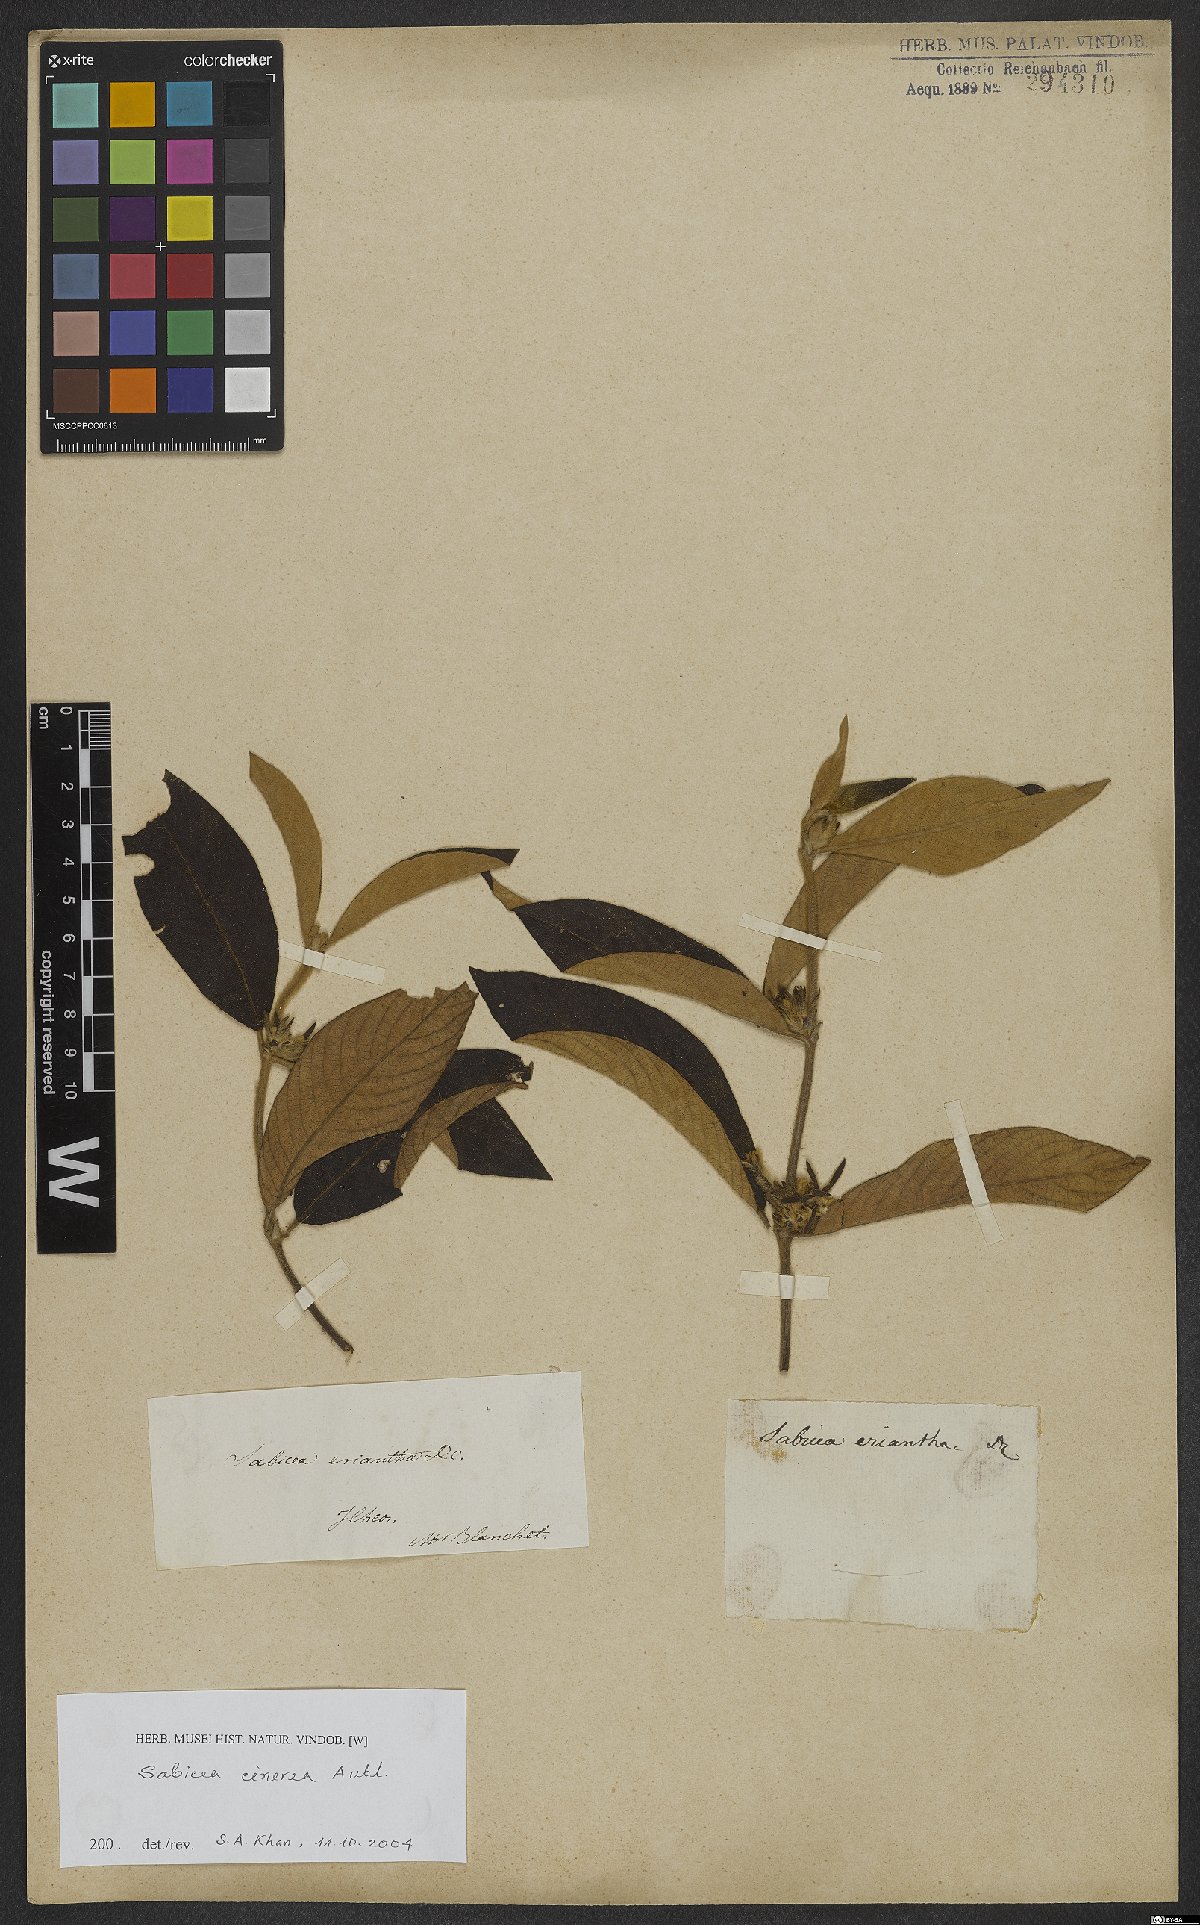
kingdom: Plantae
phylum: Tracheophyta
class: Magnoliopsida
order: Gentianales
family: Rubiaceae
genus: Sabicea
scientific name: Sabicea cinerea
